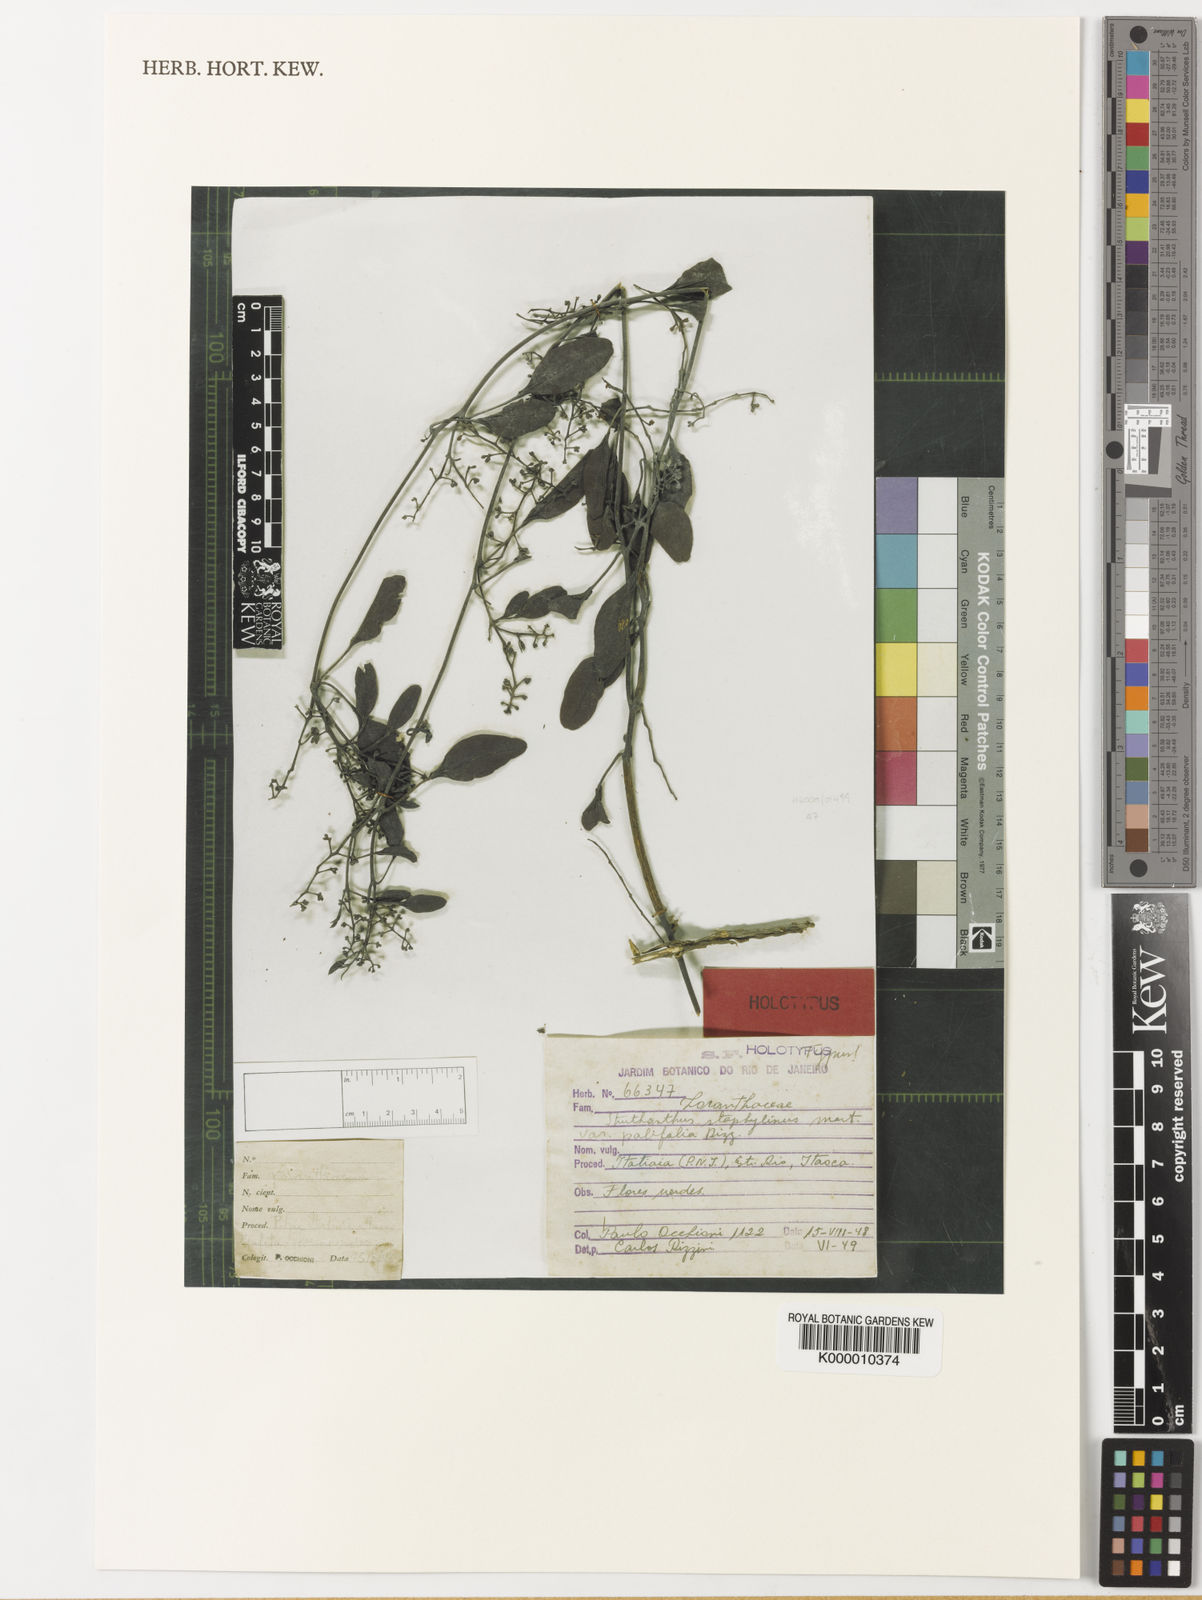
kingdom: Plantae
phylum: Tracheophyta
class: Magnoliopsida
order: Santalales
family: Loranthaceae
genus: Struthanthus
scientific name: Struthanthus staphylinus
